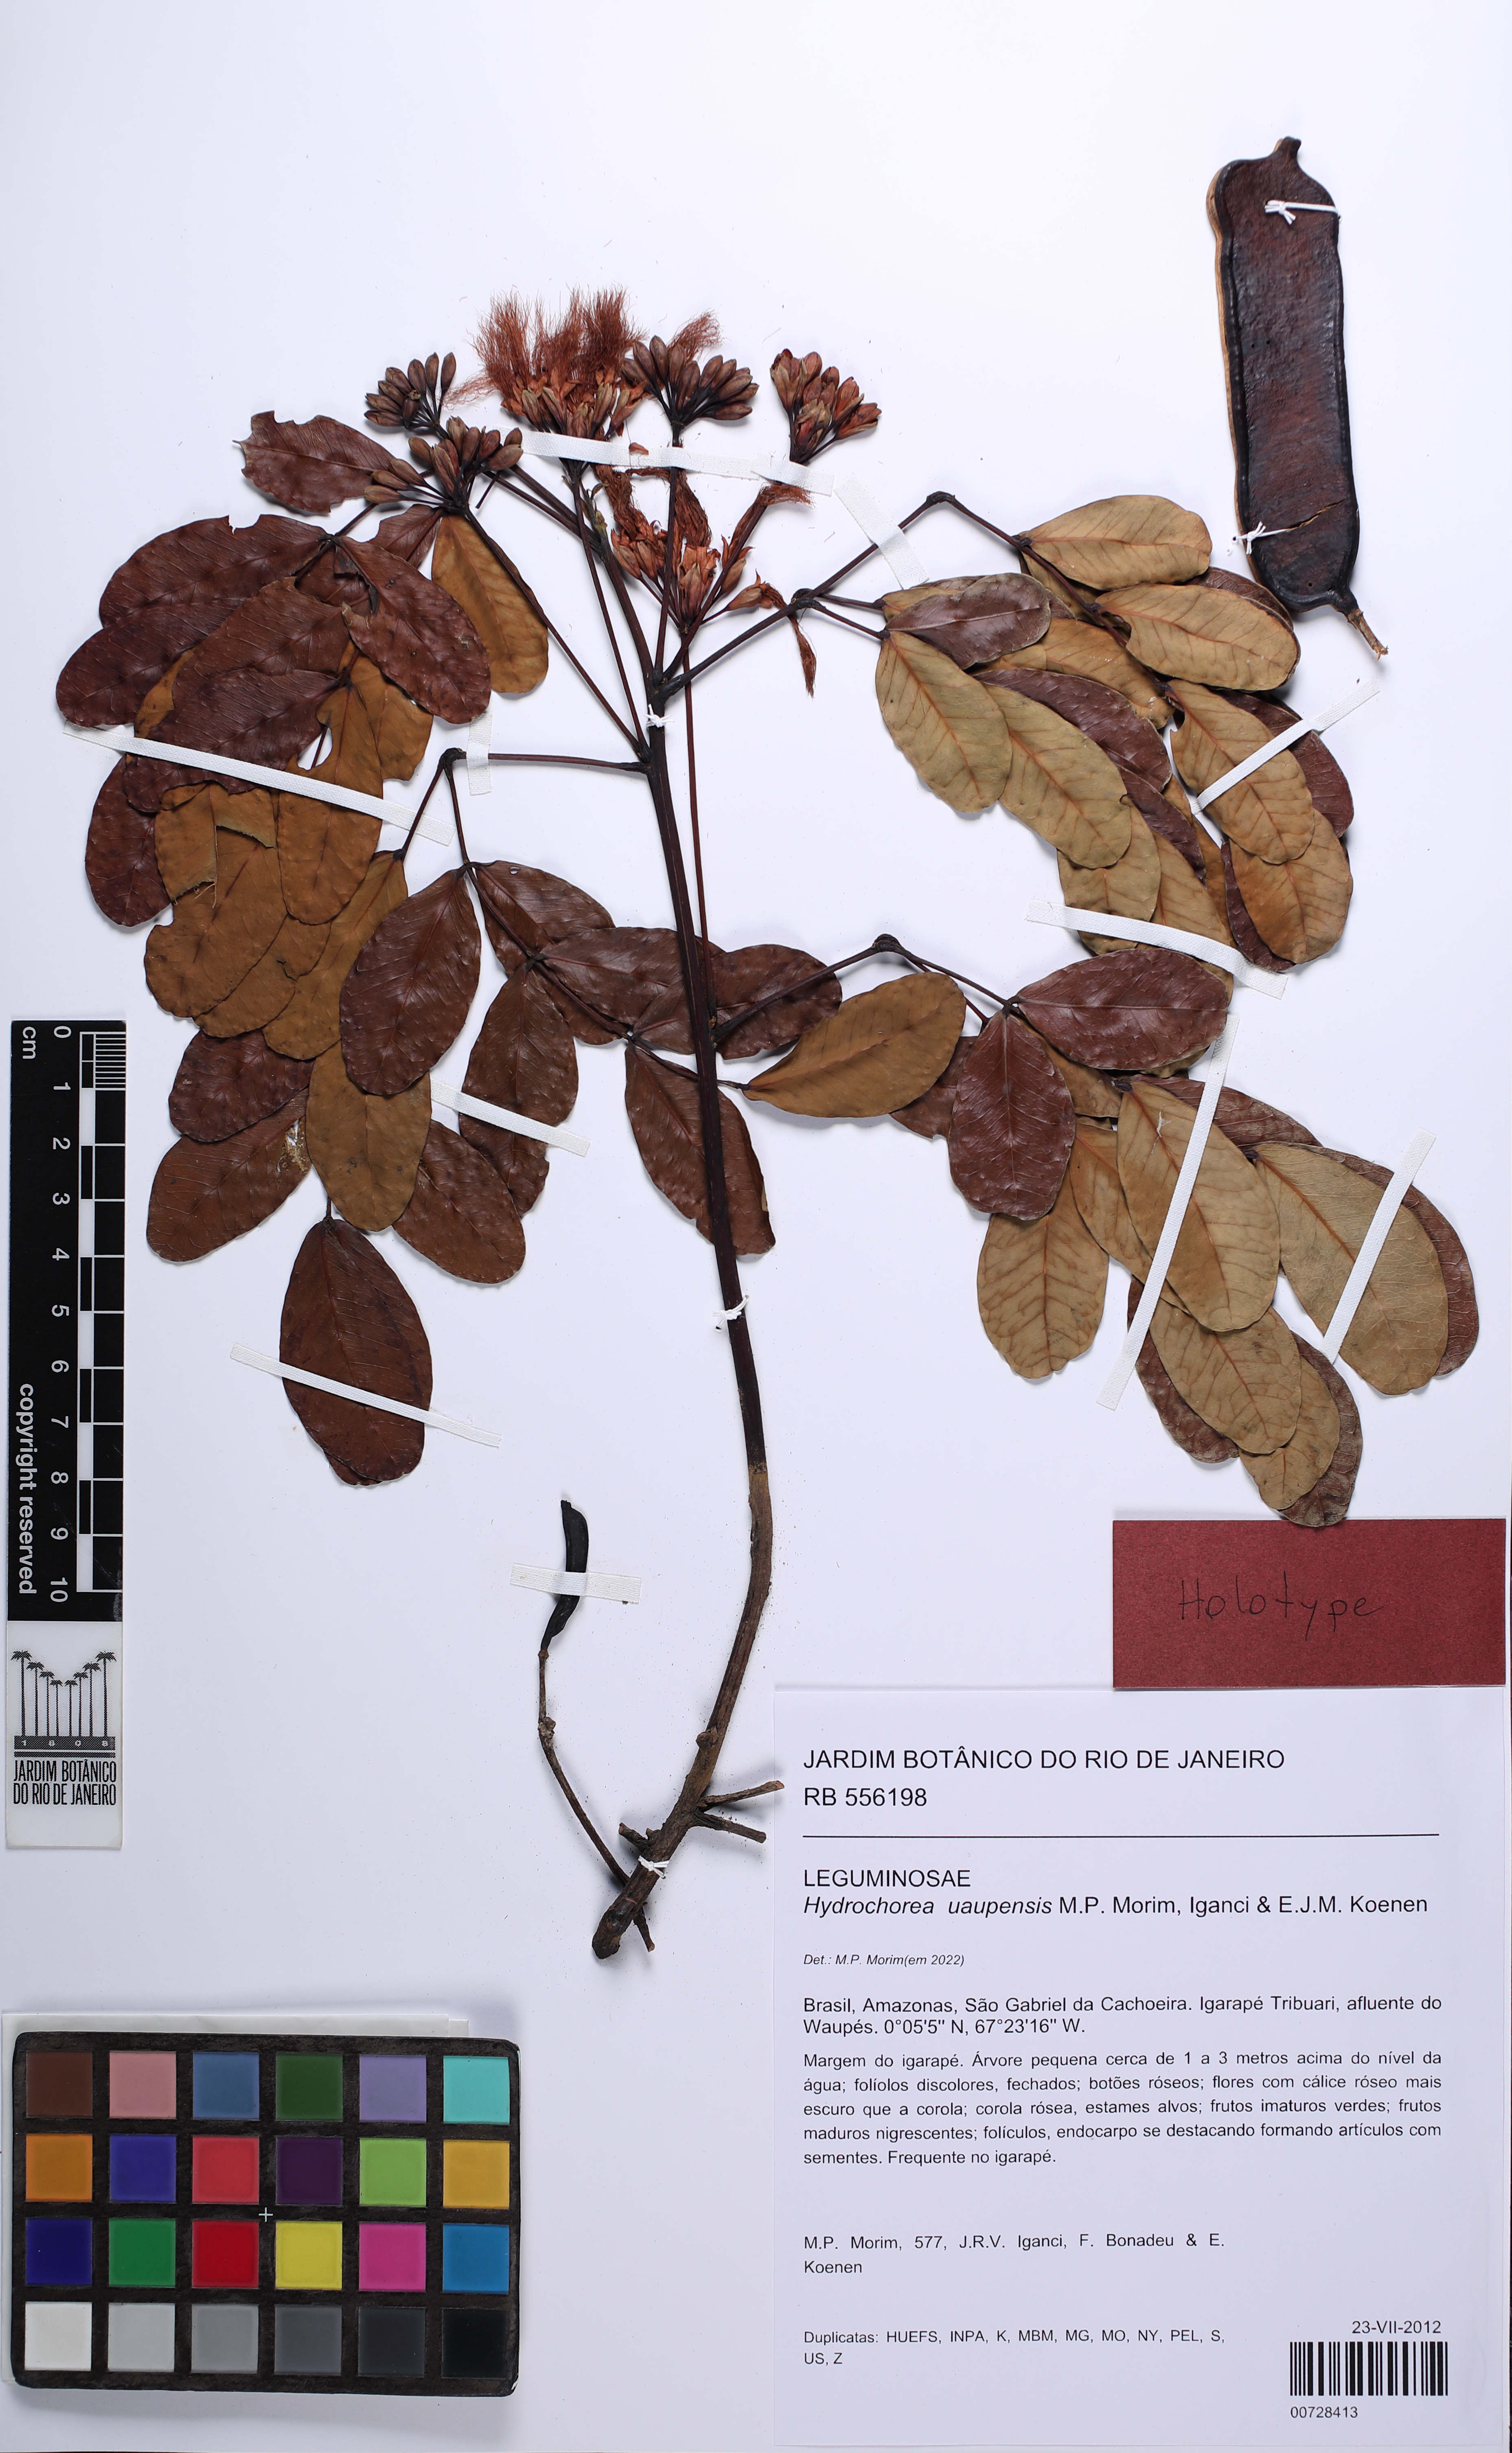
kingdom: Plantae
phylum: Tracheophyta
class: Magnoliopsida
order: Fabales
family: Fabaceae
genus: Hydrochorea
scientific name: Hydrochorea uaupensis
